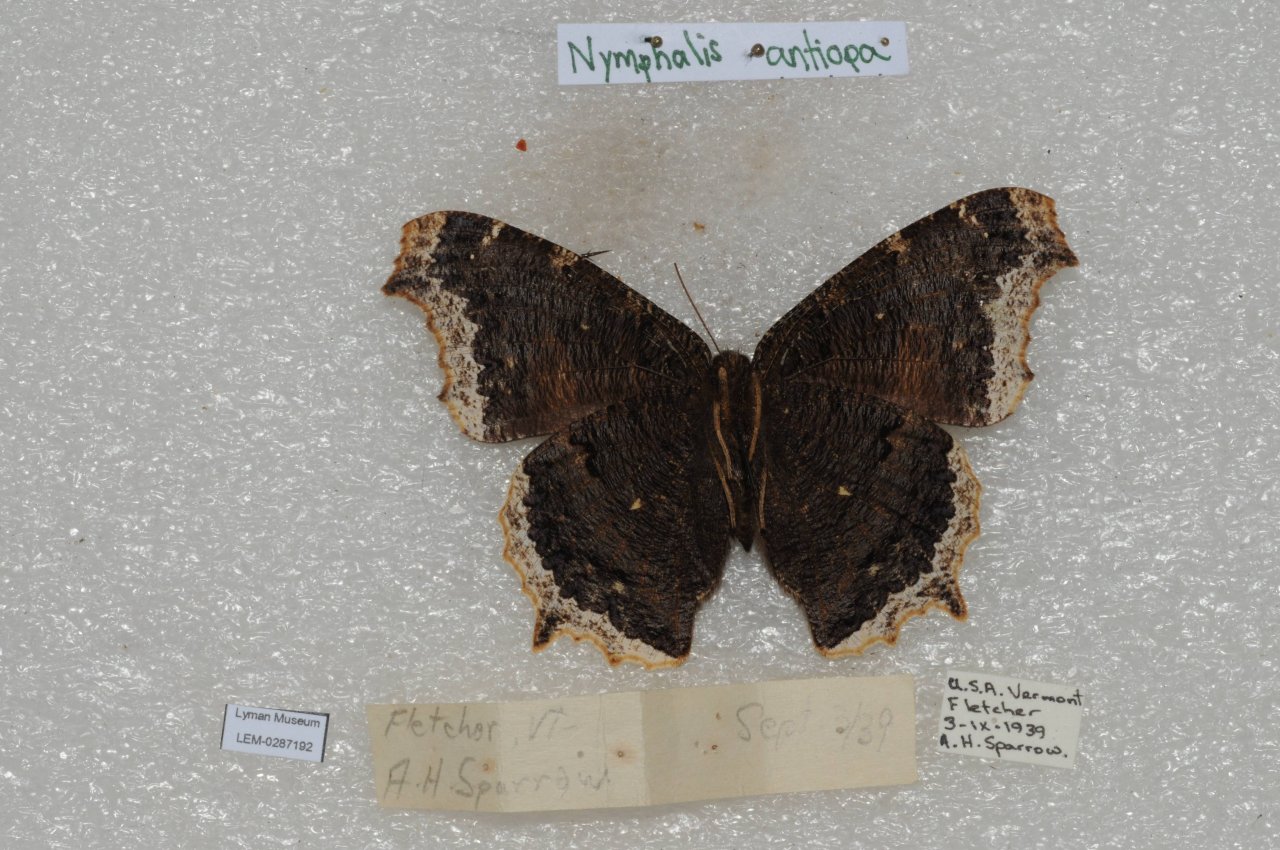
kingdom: Animalia
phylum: Arthropoda
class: Insecta
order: Lepidoptera
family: Nymphalidae
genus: Nymphalis
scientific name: Nymphalis antiopa
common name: Mourning Cloak
